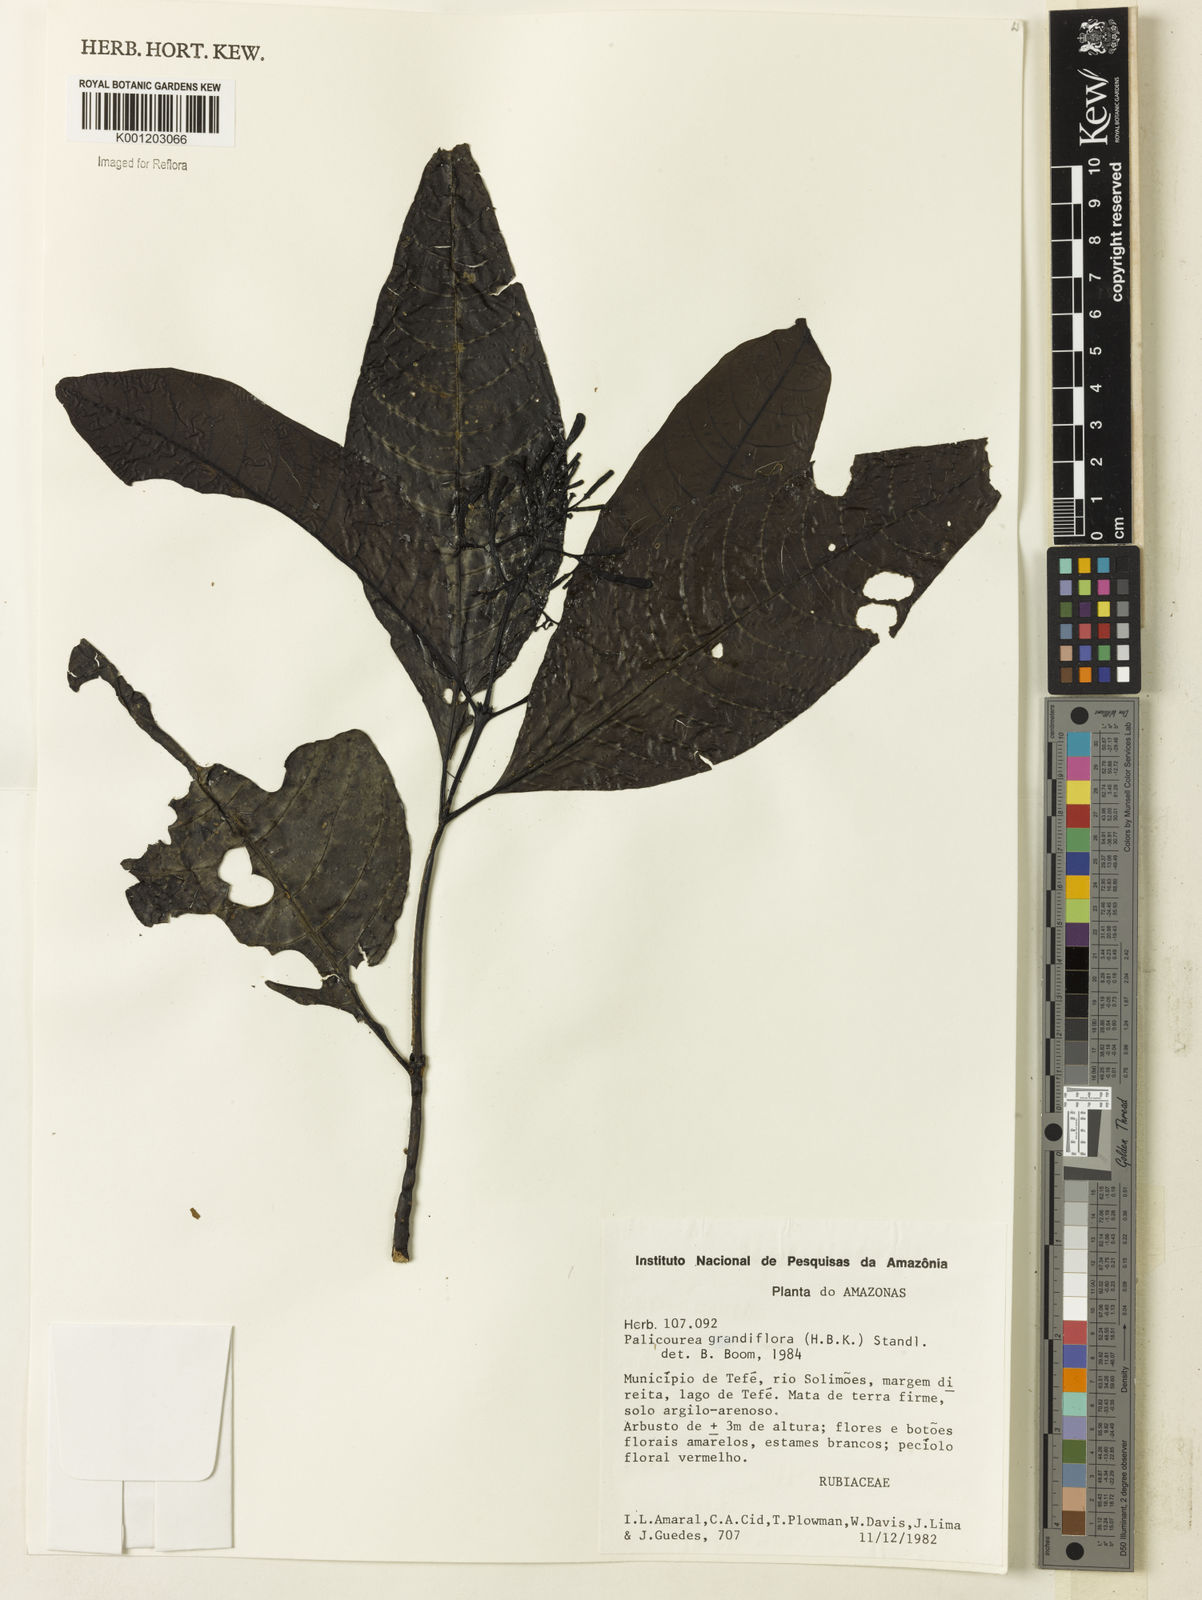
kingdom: Plantae
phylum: Tracheophyta
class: Magnoliopsida
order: Gentianales
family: Rubiaceae
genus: Palicourea
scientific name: Palicourea grandiflora
